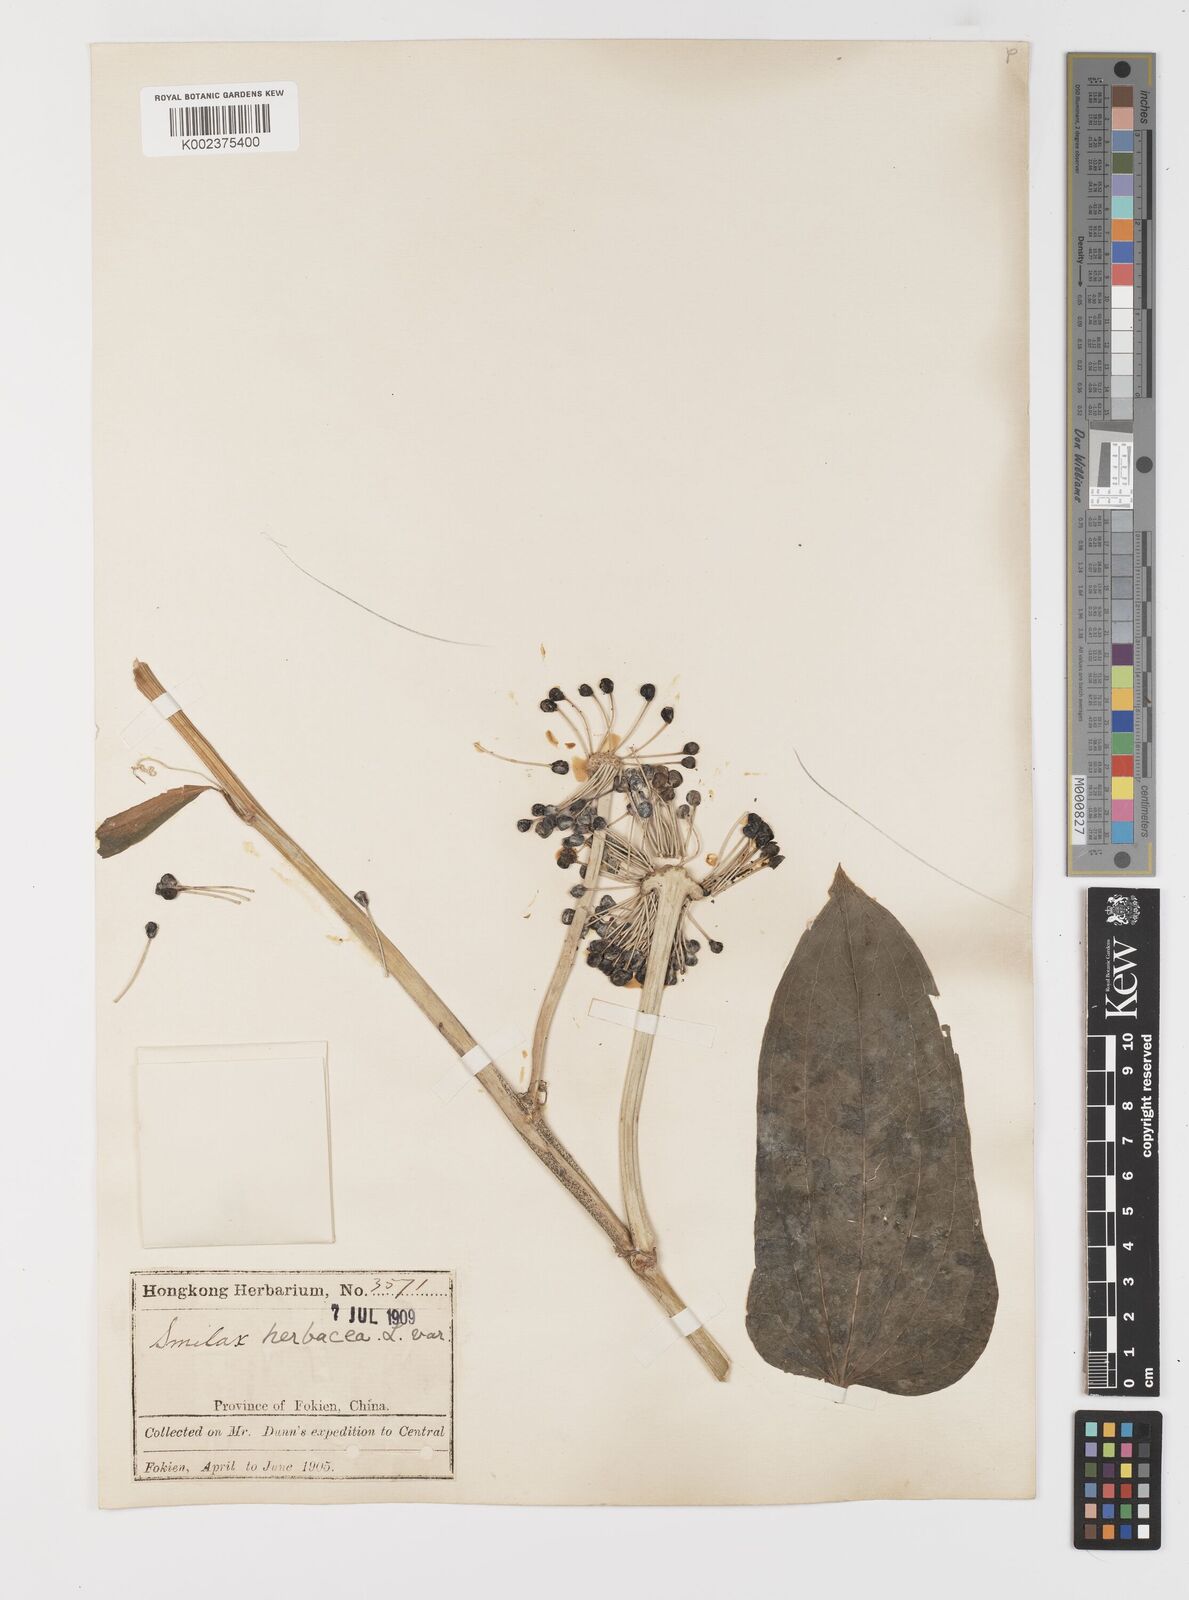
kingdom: Plantae
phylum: Tracheophyta
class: Liliopsida
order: Liliales
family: Smilacaceae
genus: Smilax
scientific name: Smilax nipponica
